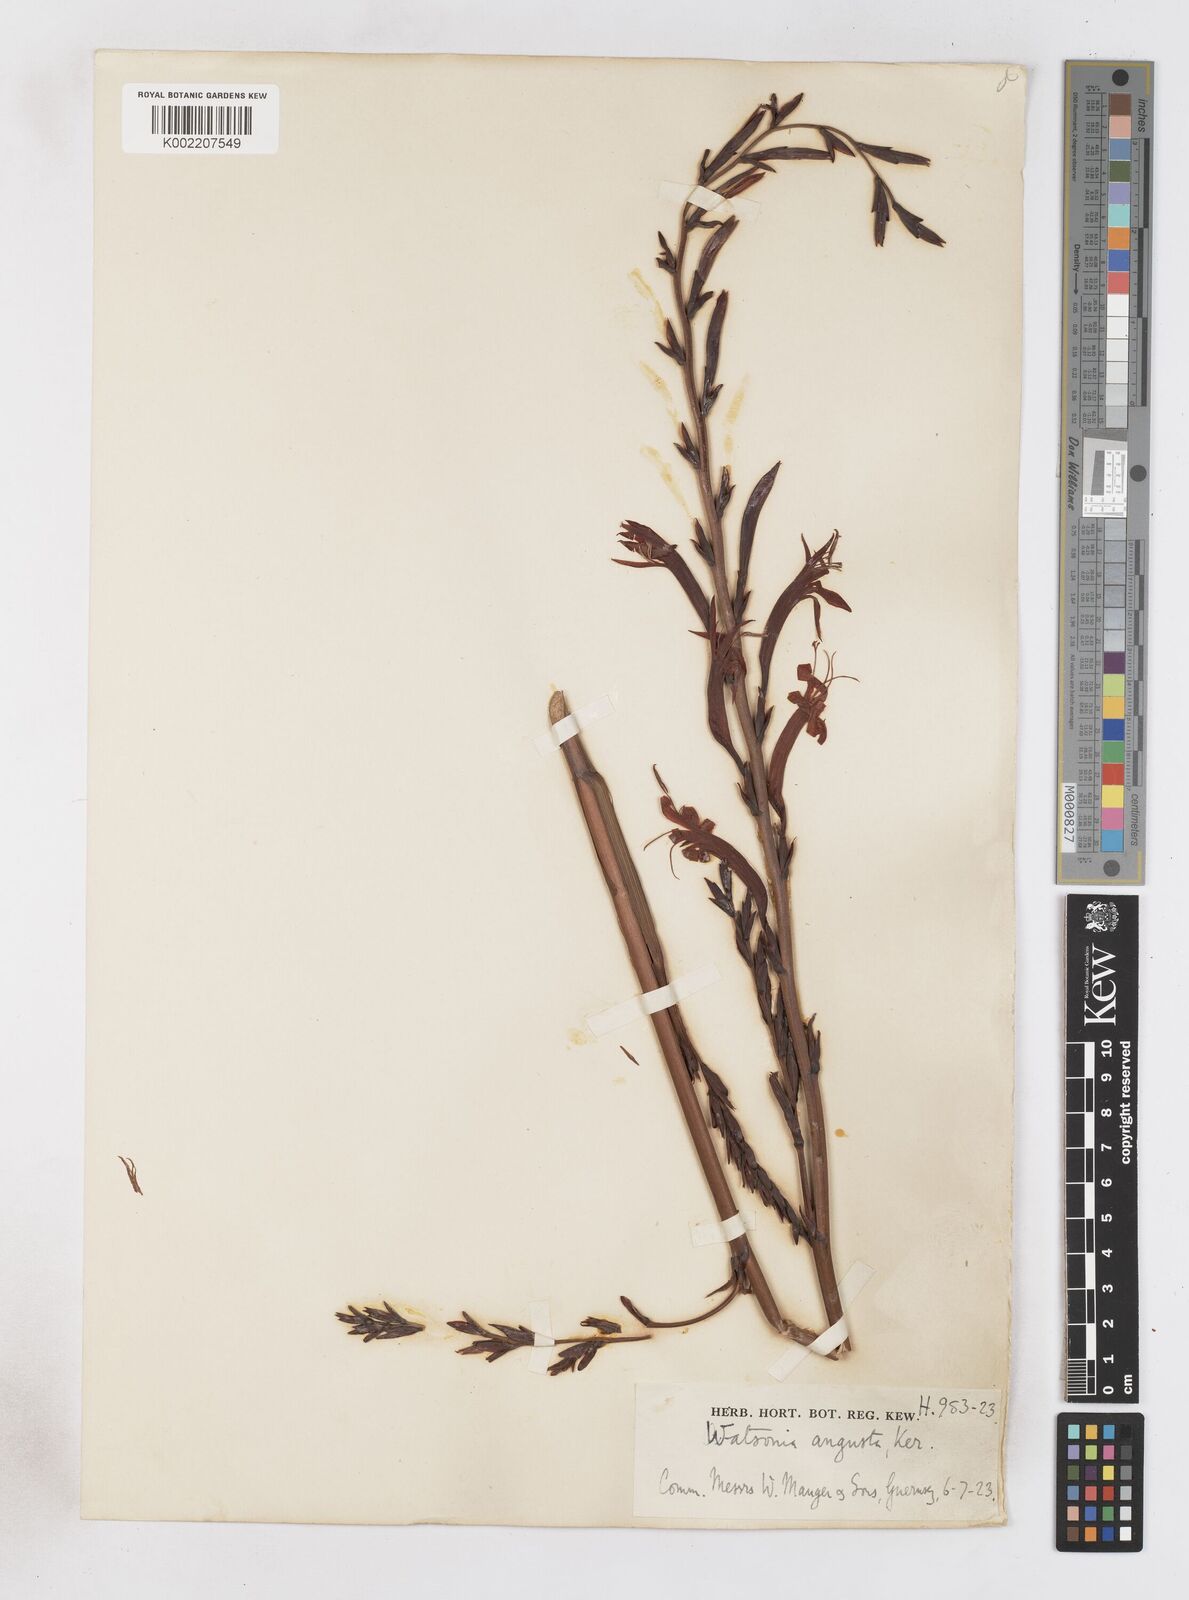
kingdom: Plantae
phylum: Tracheophyta
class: Liliopsida
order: Asparagales
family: Iridaceae
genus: Watsonia
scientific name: Watsonia angusta
